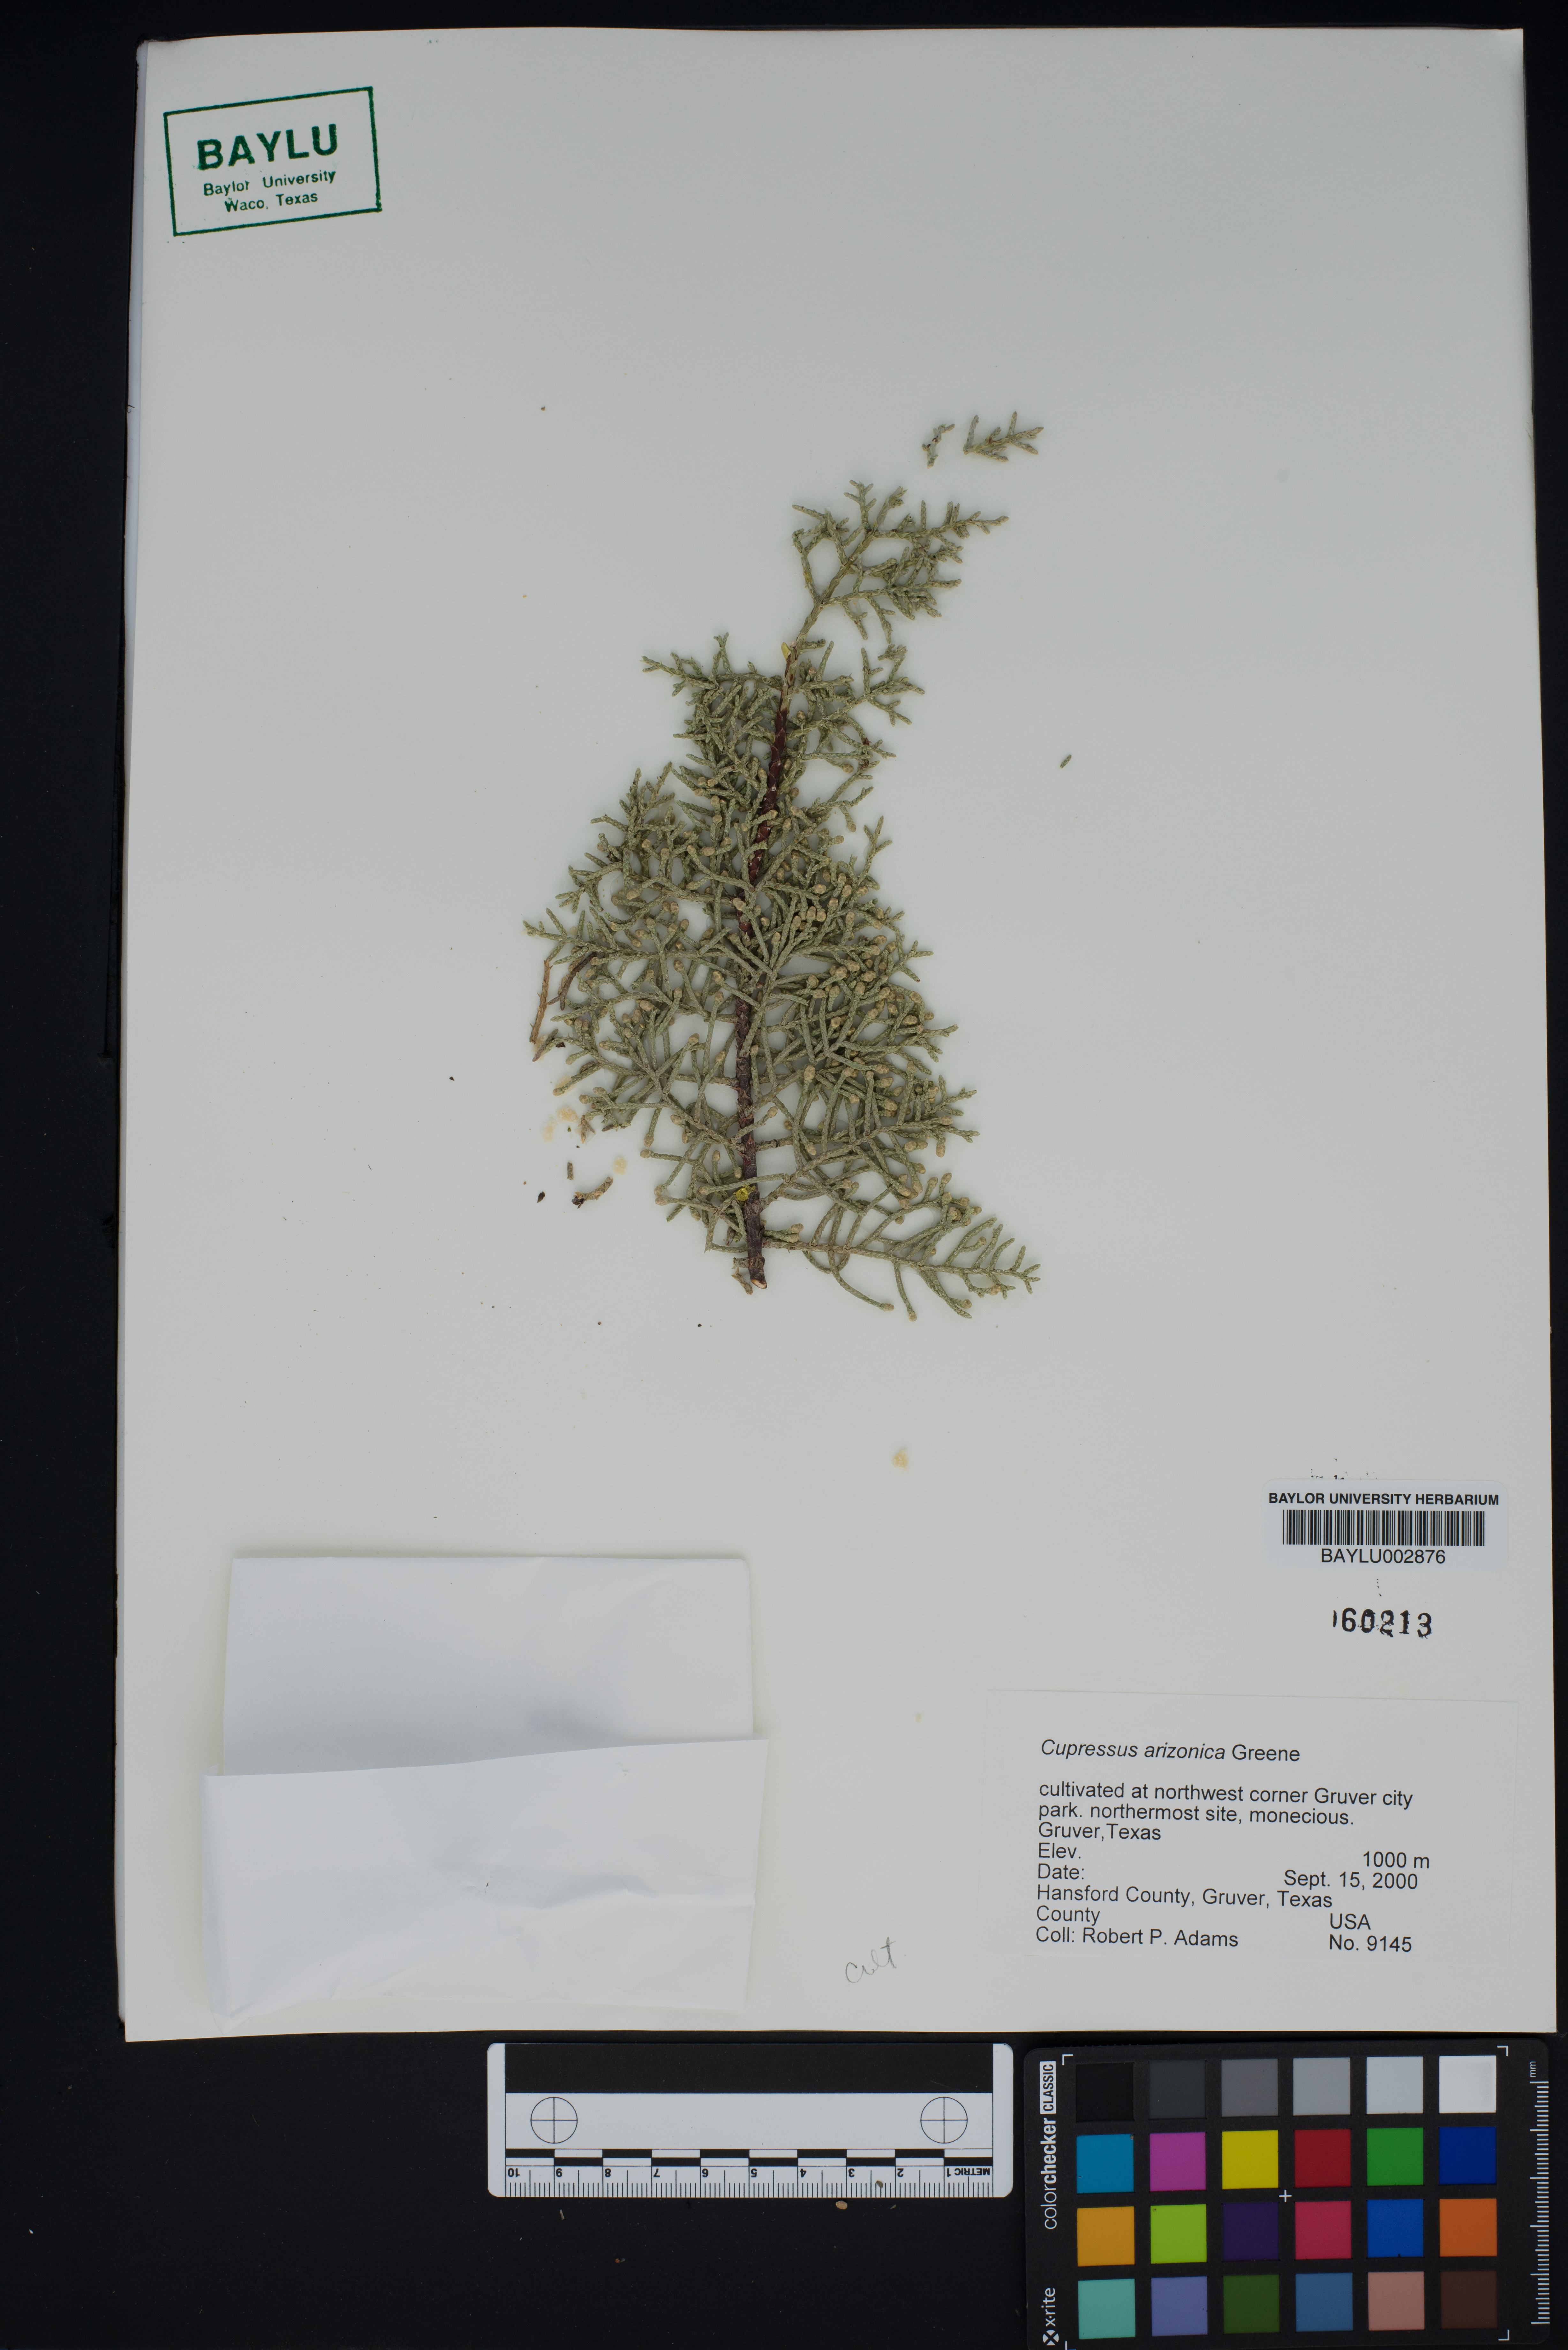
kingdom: Plantae
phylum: Tracheophyta
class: Pinopsida
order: Pinales
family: Cupressaceae
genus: Cupressus
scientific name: Cupressus arizonica
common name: Arizona cypress
